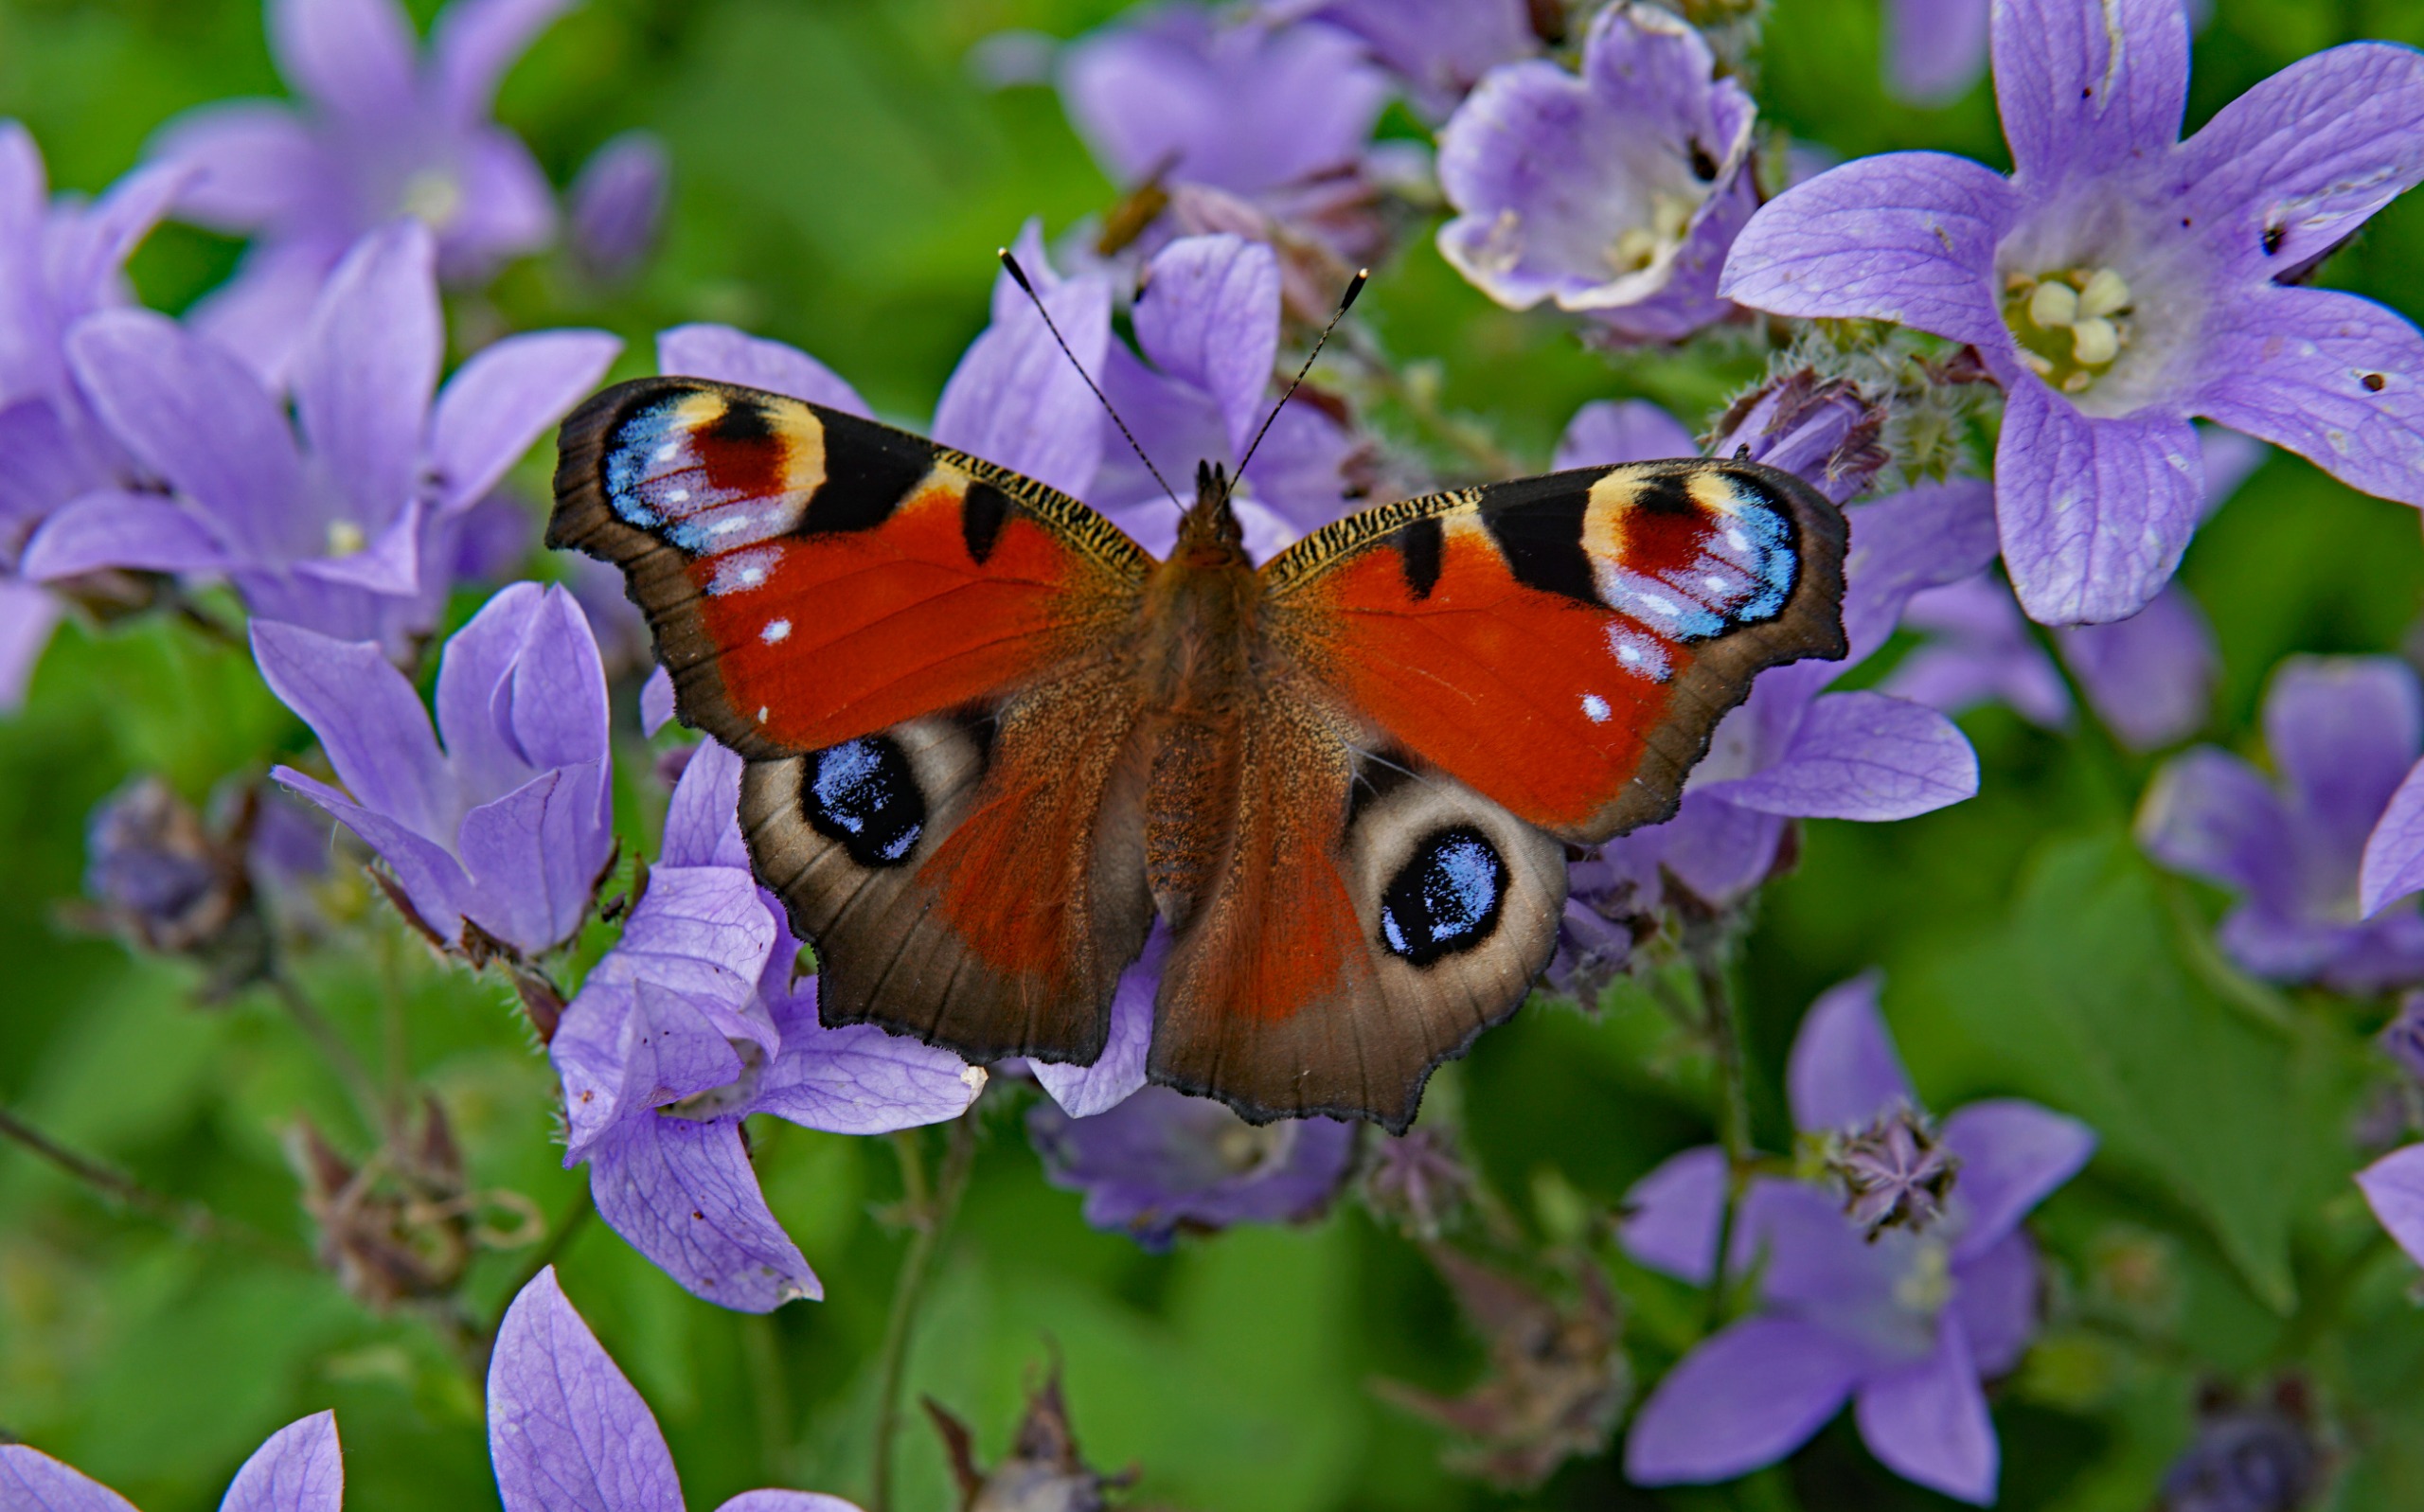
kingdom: Animalia
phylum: Arthropoda
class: Insecta
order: Lepidoptera
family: Nymphalidae
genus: Aglais
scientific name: Aglais io
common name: Dagpåfugleøje
